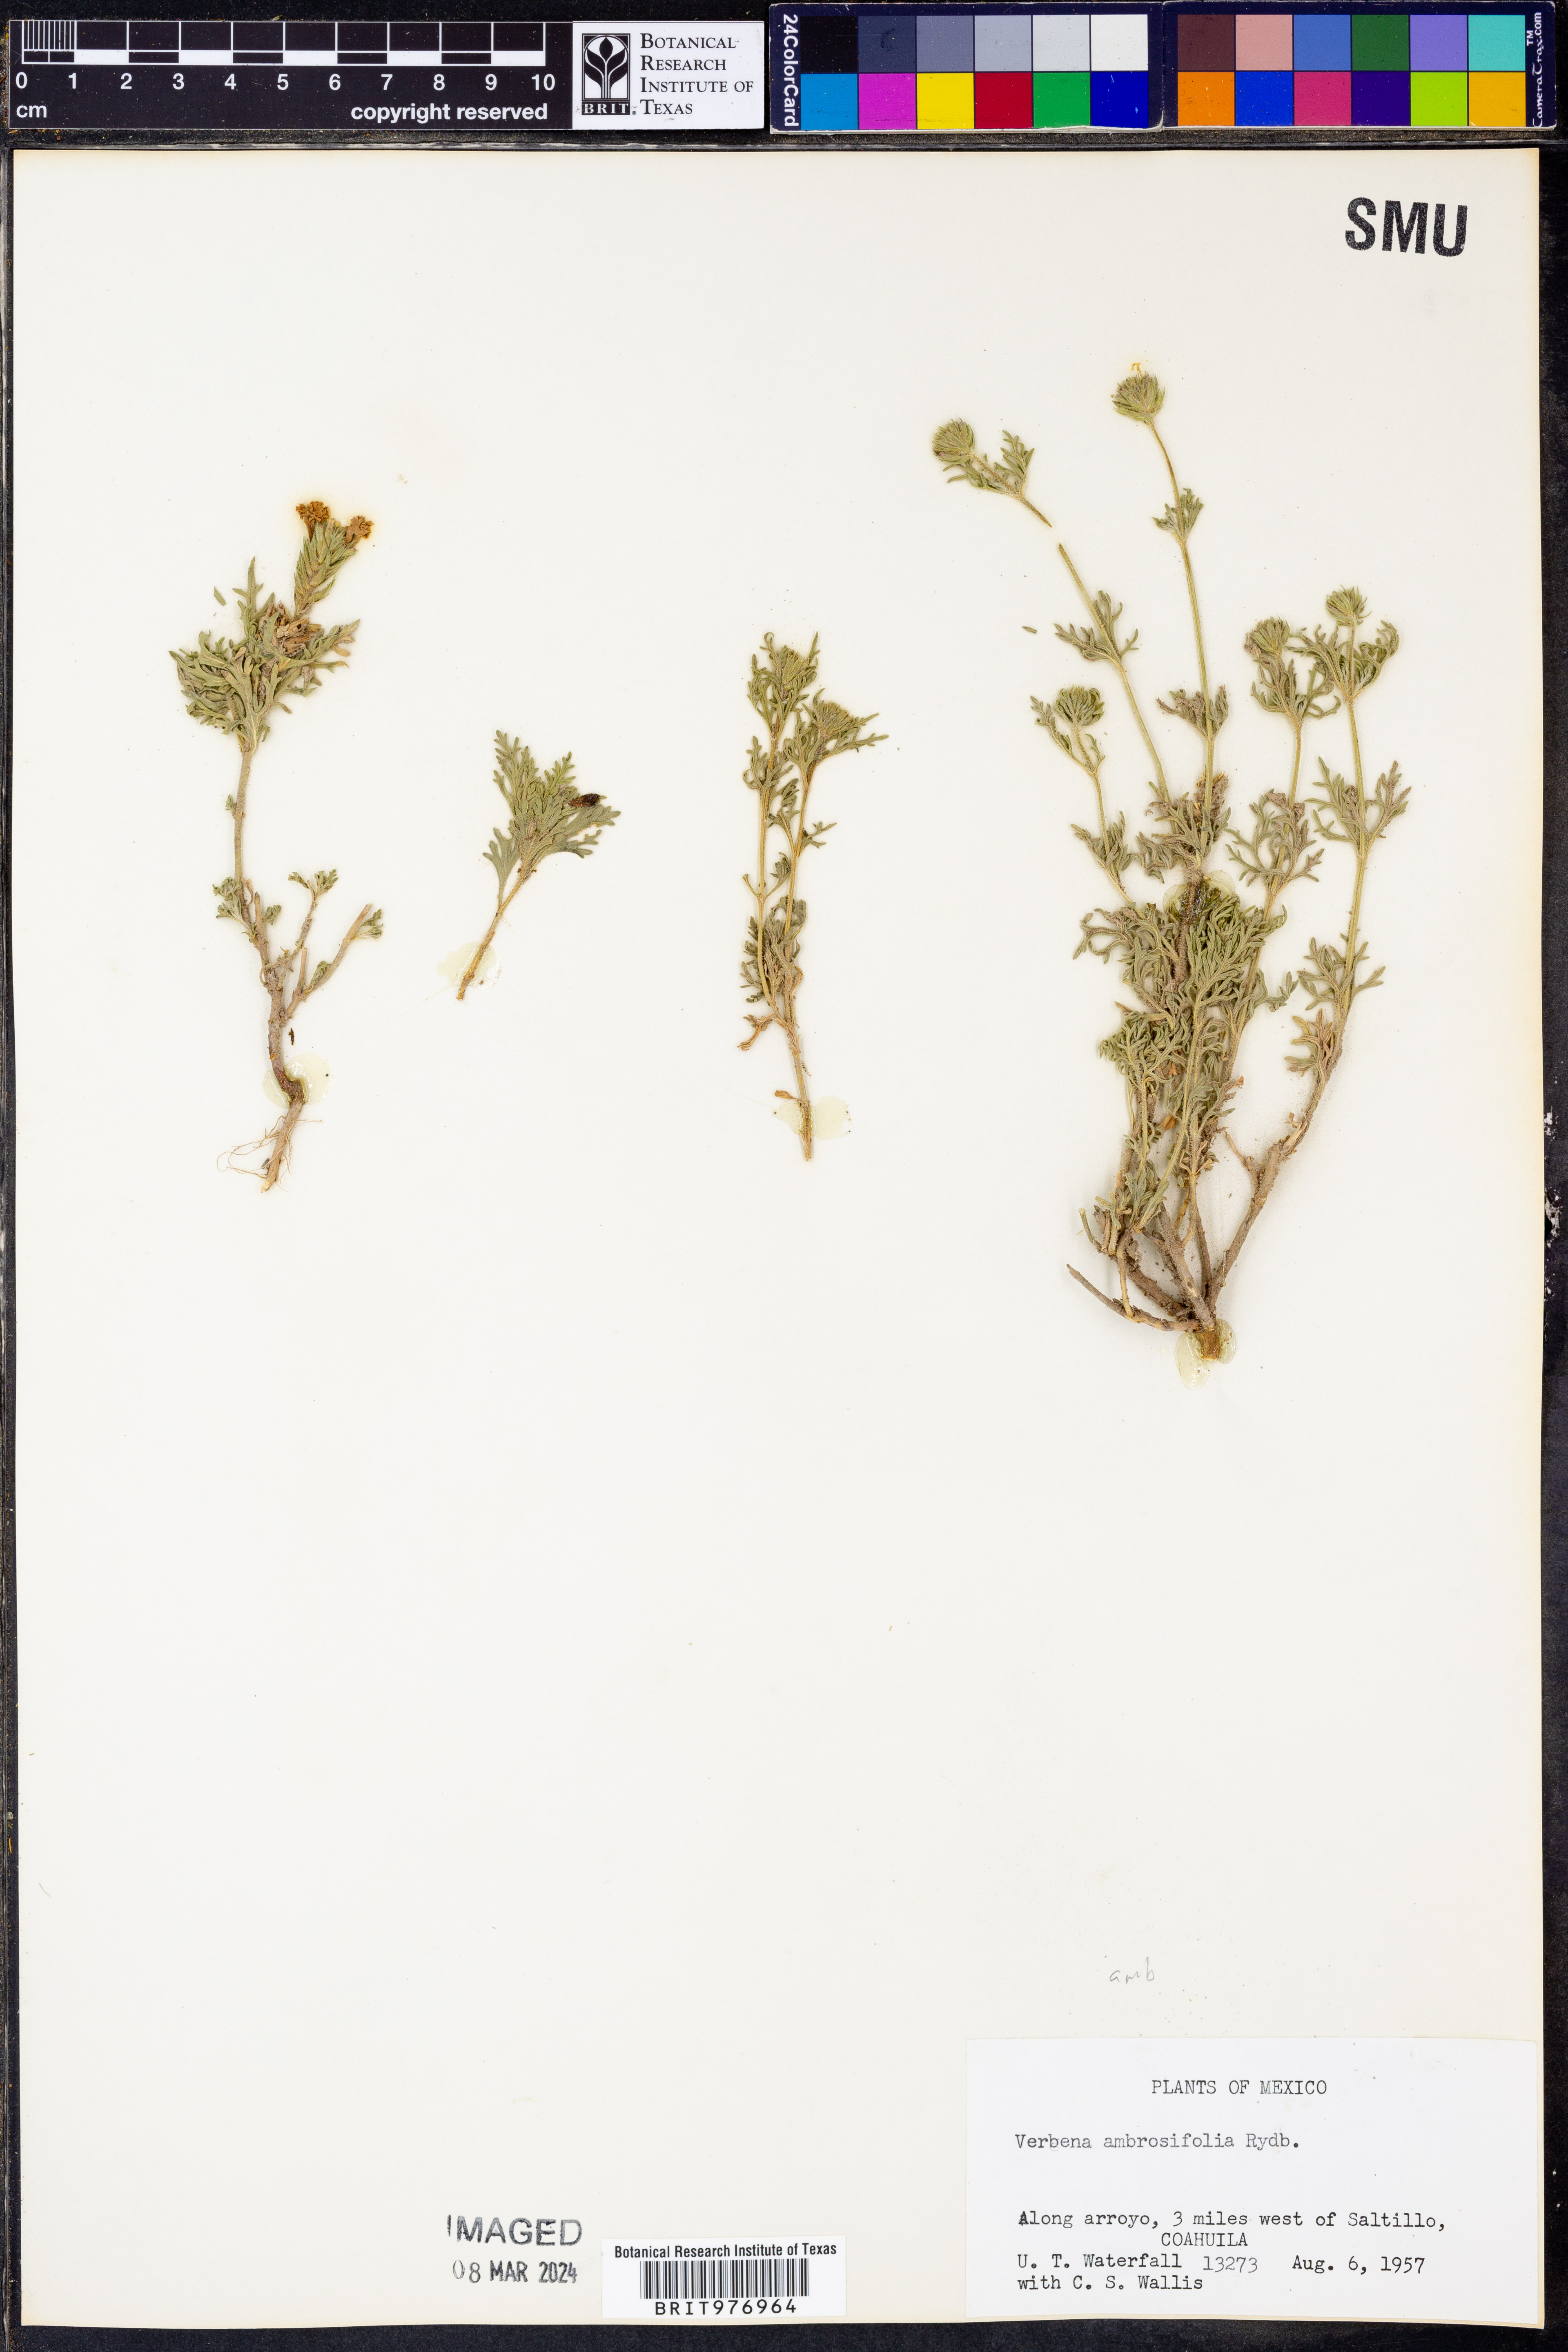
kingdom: Plantae
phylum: Tracheophyta
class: Magnoliopsida
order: Lamiales
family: Verbenaceae
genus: Verbena
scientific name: Verbena
